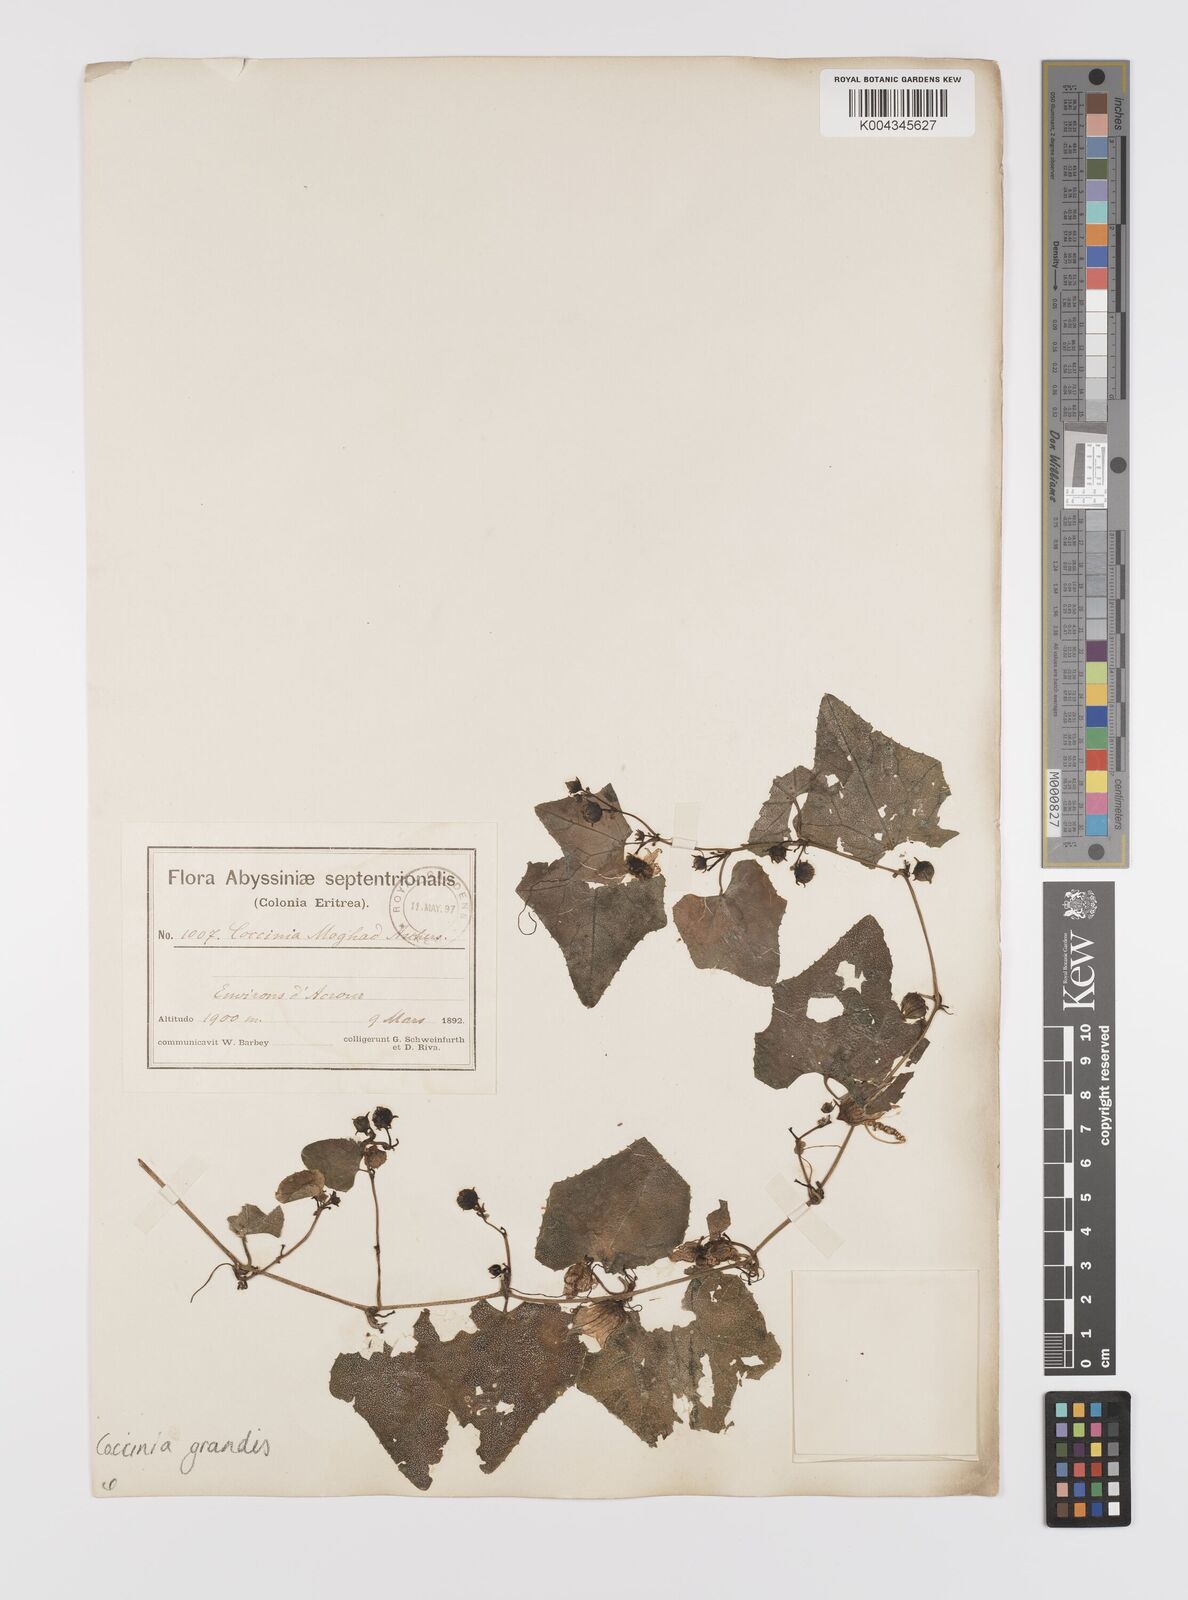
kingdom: Plantae
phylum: Tracheophyta
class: Magnoliopsida
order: Cucurbitales
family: Cucurbitaceae
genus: Coccinia
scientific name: Coccinia grandis
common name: Ivy gourd
